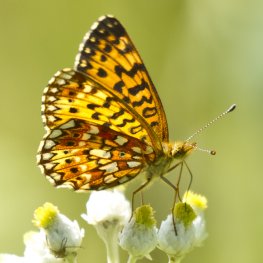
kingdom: Animalia
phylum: Arthropoda
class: Insecta
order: Lepidoptera
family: Nymphalidae
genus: Boloria
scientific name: Boloria selene
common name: Silver-bordered Fritillary
